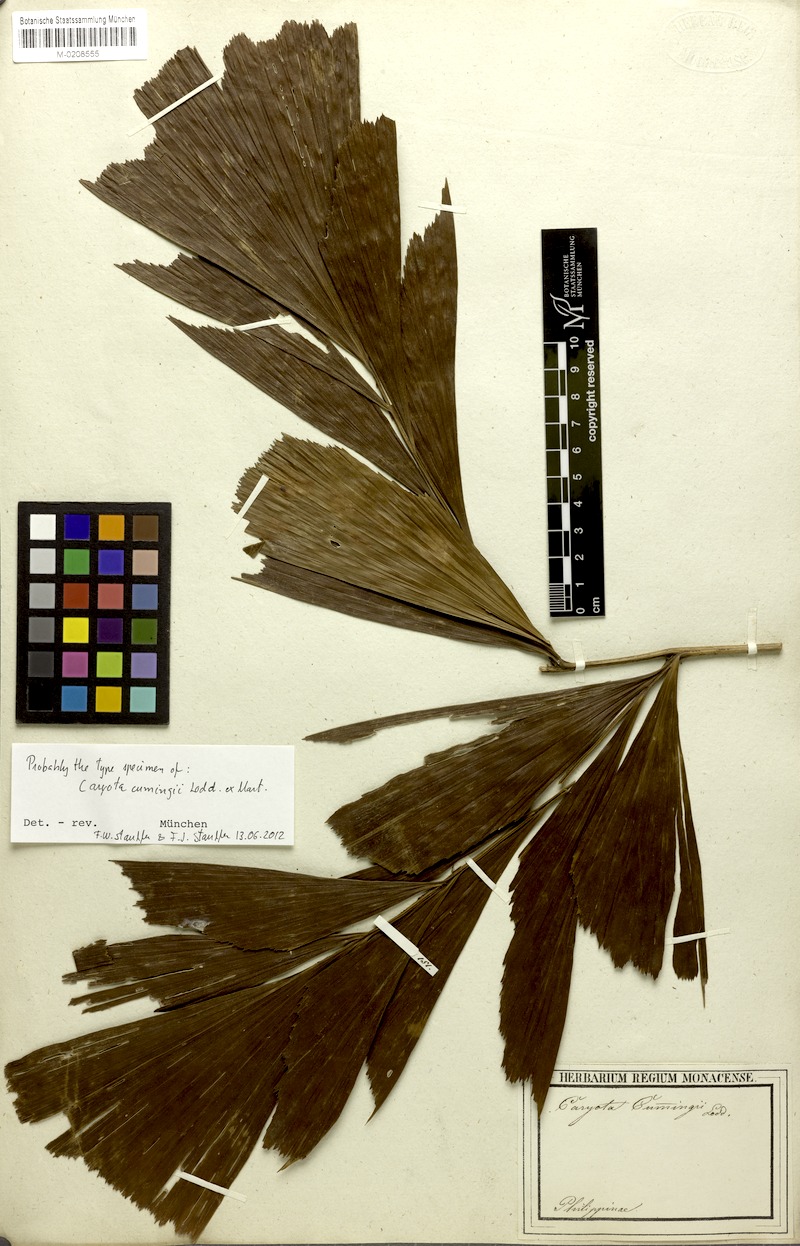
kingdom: Plantae
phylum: Tracheophyta
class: Liliopsida
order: Arecales
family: Arecaceae
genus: Caryota
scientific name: Caryota cumingii
